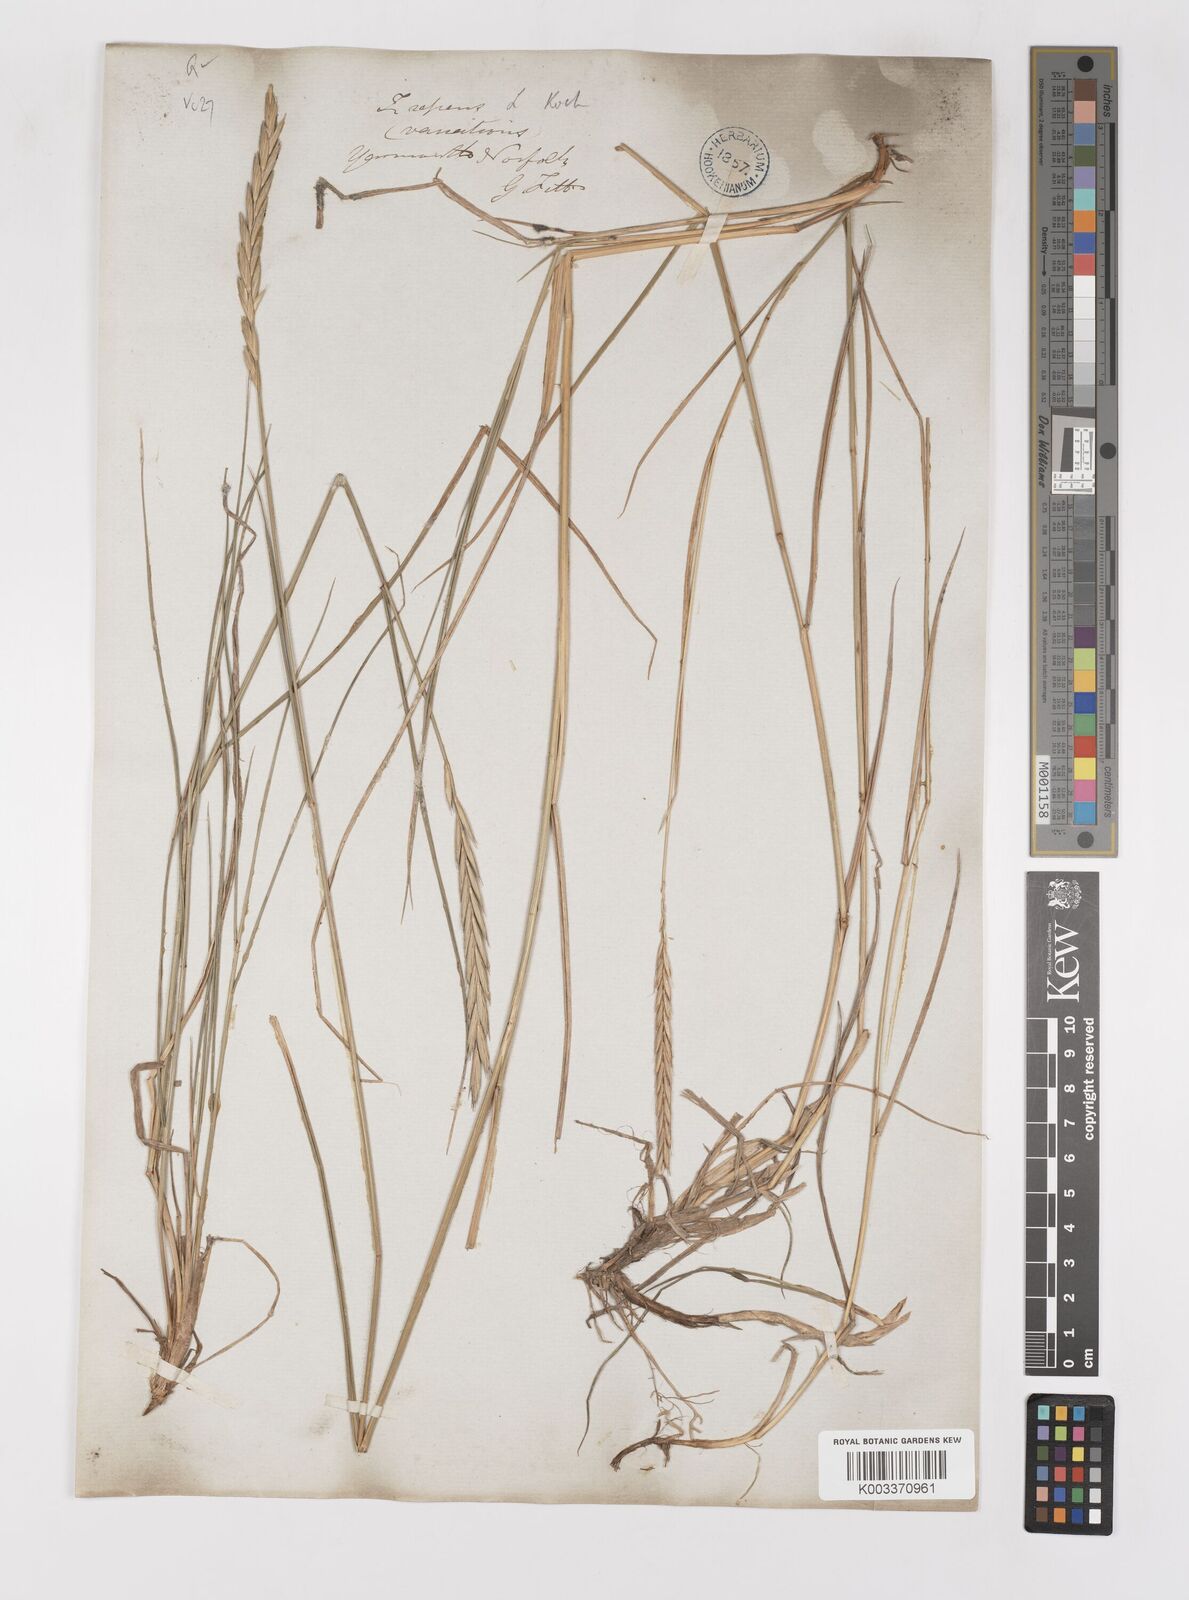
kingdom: Plantae
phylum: Tracheophyta
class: Liliopsida
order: Poales
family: Poaceae
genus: Elymus
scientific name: Elymus repens
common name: Quackgrass
